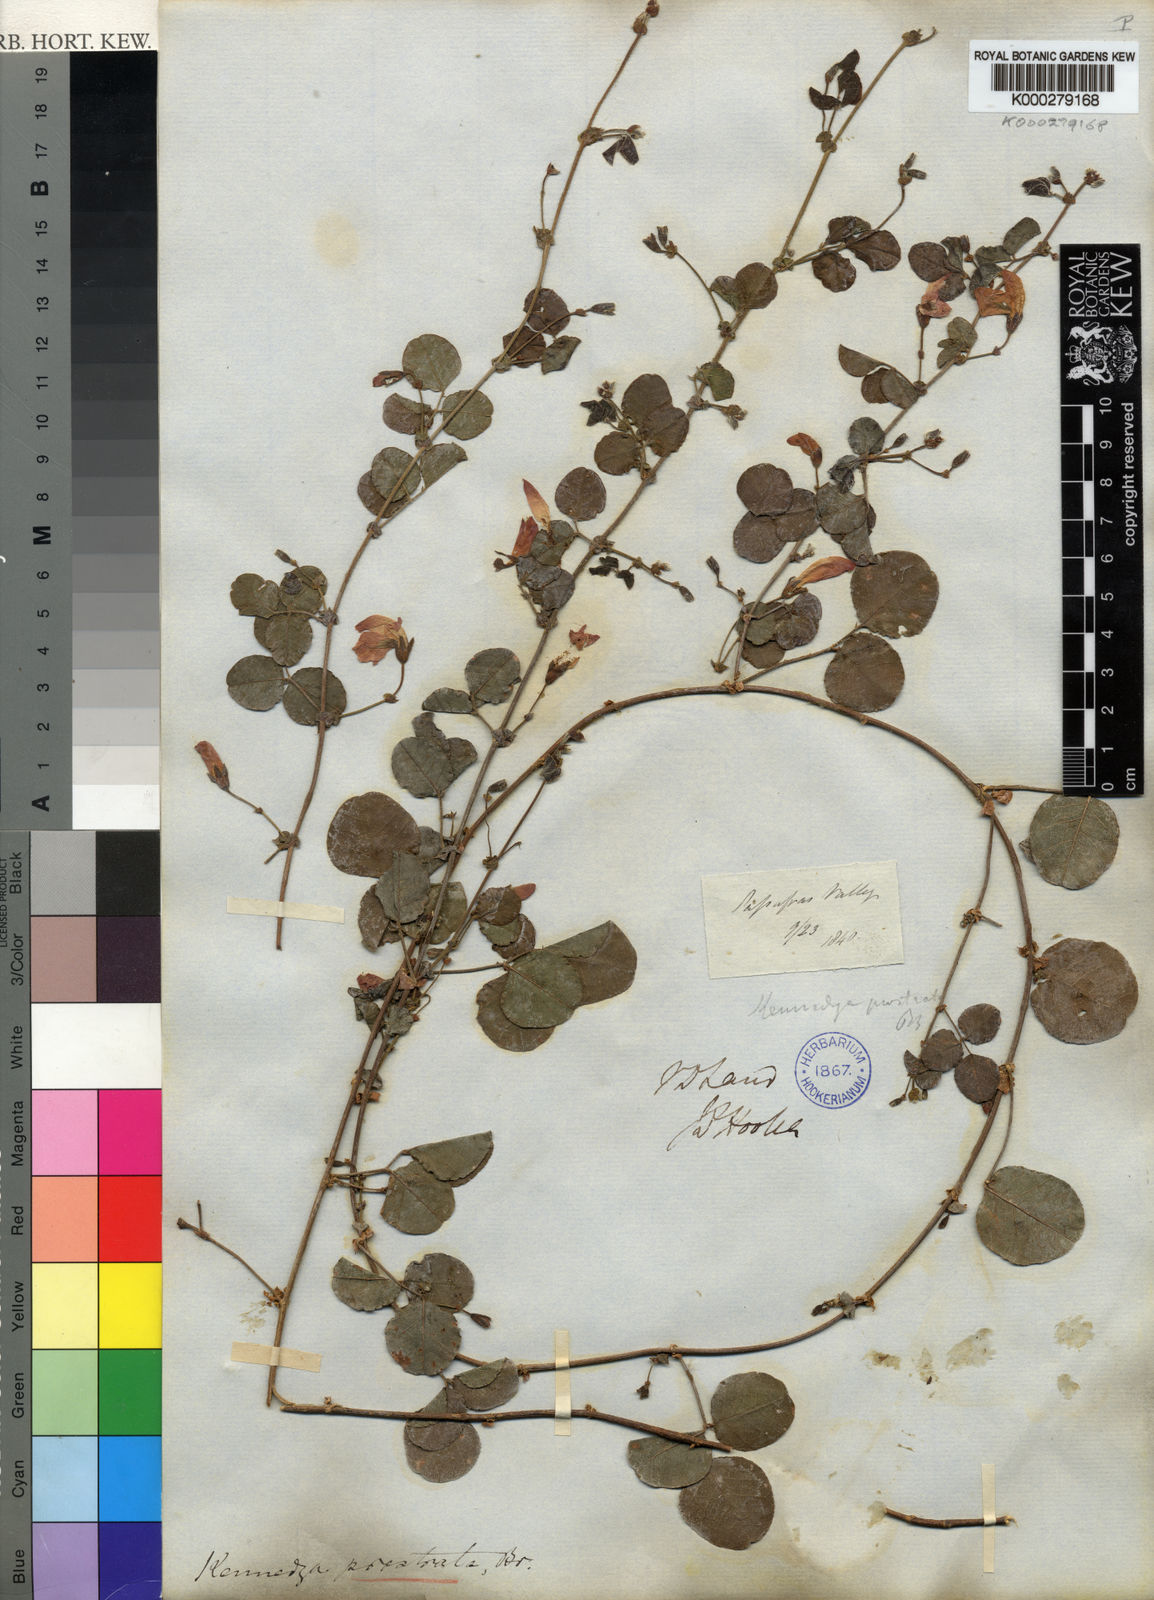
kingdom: Plantae
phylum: Tracheophyta
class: Magnoliopsida
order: Fabales
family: Fabaceae
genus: Kennedia
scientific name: Kennedia prostrata
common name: Running-postman
